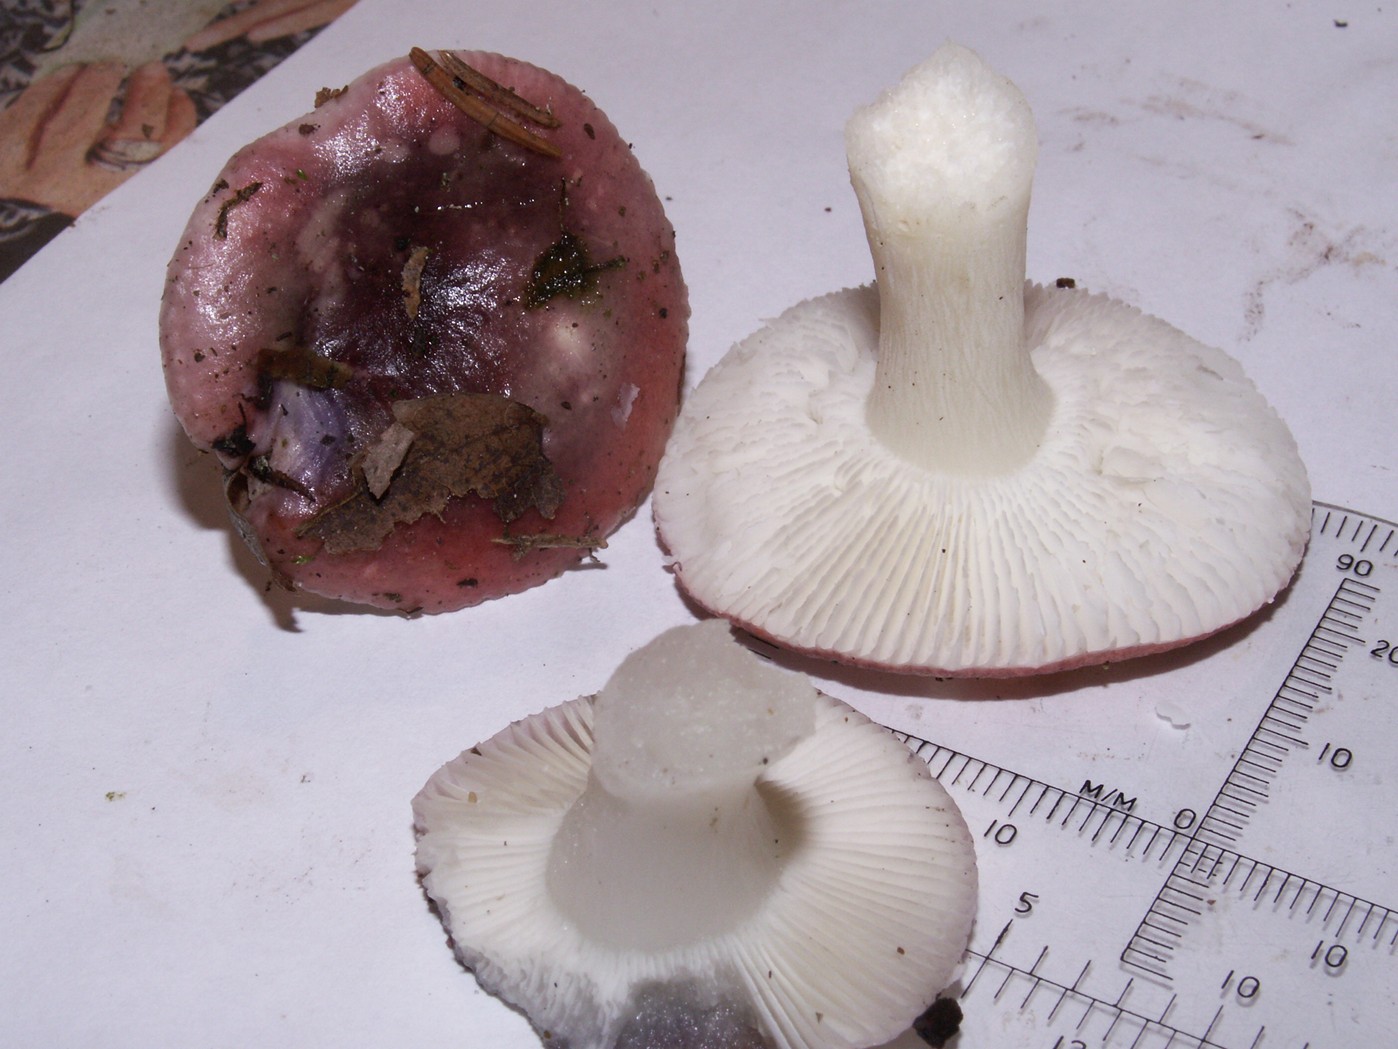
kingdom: Fungi
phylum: Basidiomycota
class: Agaricomycetes
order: Russulales
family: Russulaceae
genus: Russula
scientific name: Russula fragilis
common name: Fragile brittlegill
